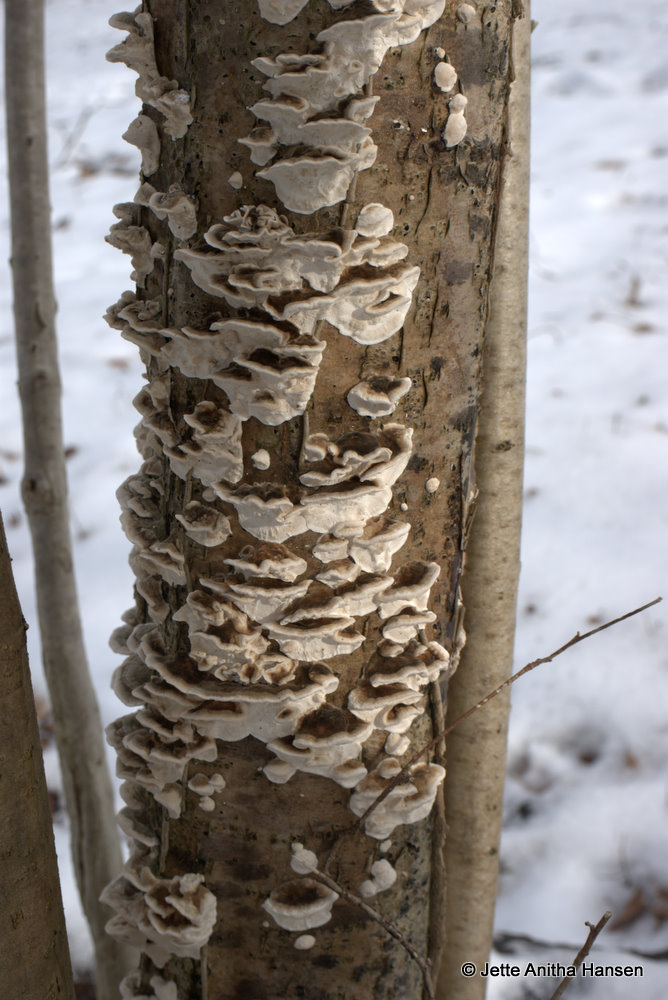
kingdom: Fungi
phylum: Basidiomycota
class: Agaricomycetes
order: Polyporales
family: Polyporaceae
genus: Trametes
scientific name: Trametes versicolor
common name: broget læderporesvamp
